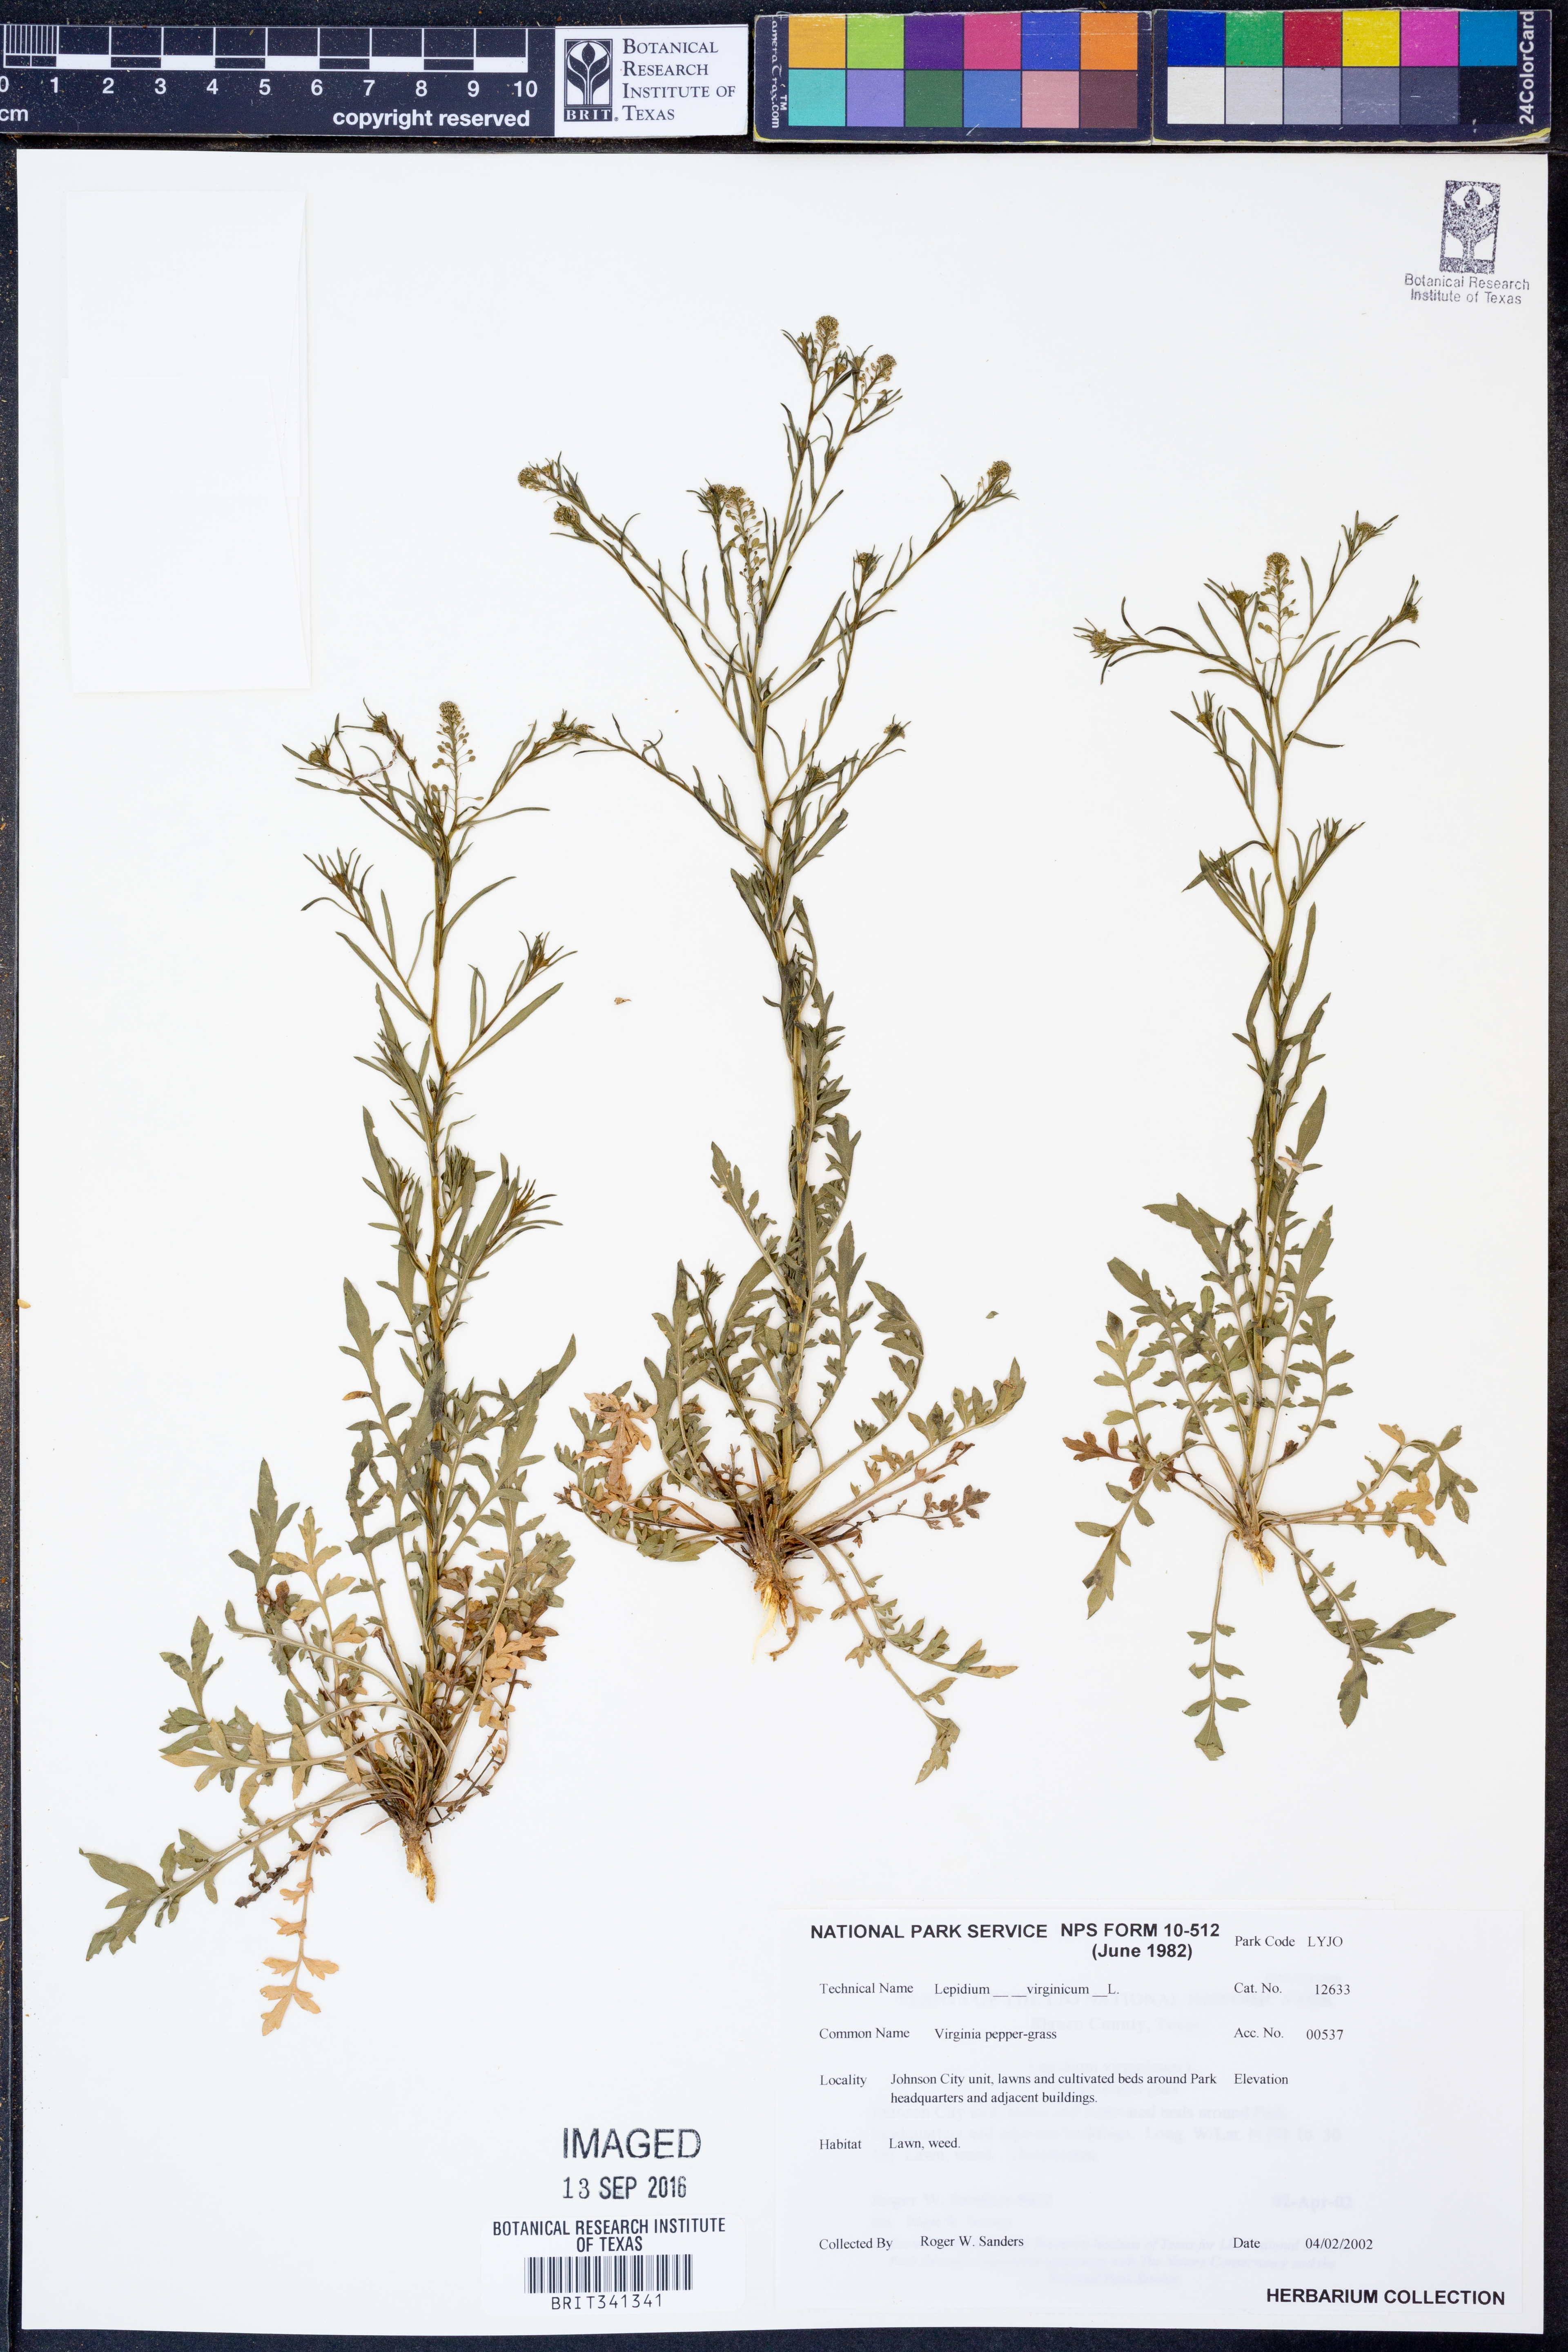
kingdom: Plantae
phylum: Tracheophyta
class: Magnoliopsida
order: Brassicales
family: Brassicaceae
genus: Lepidium
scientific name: Lepidium virginicum
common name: Least pepperwort
